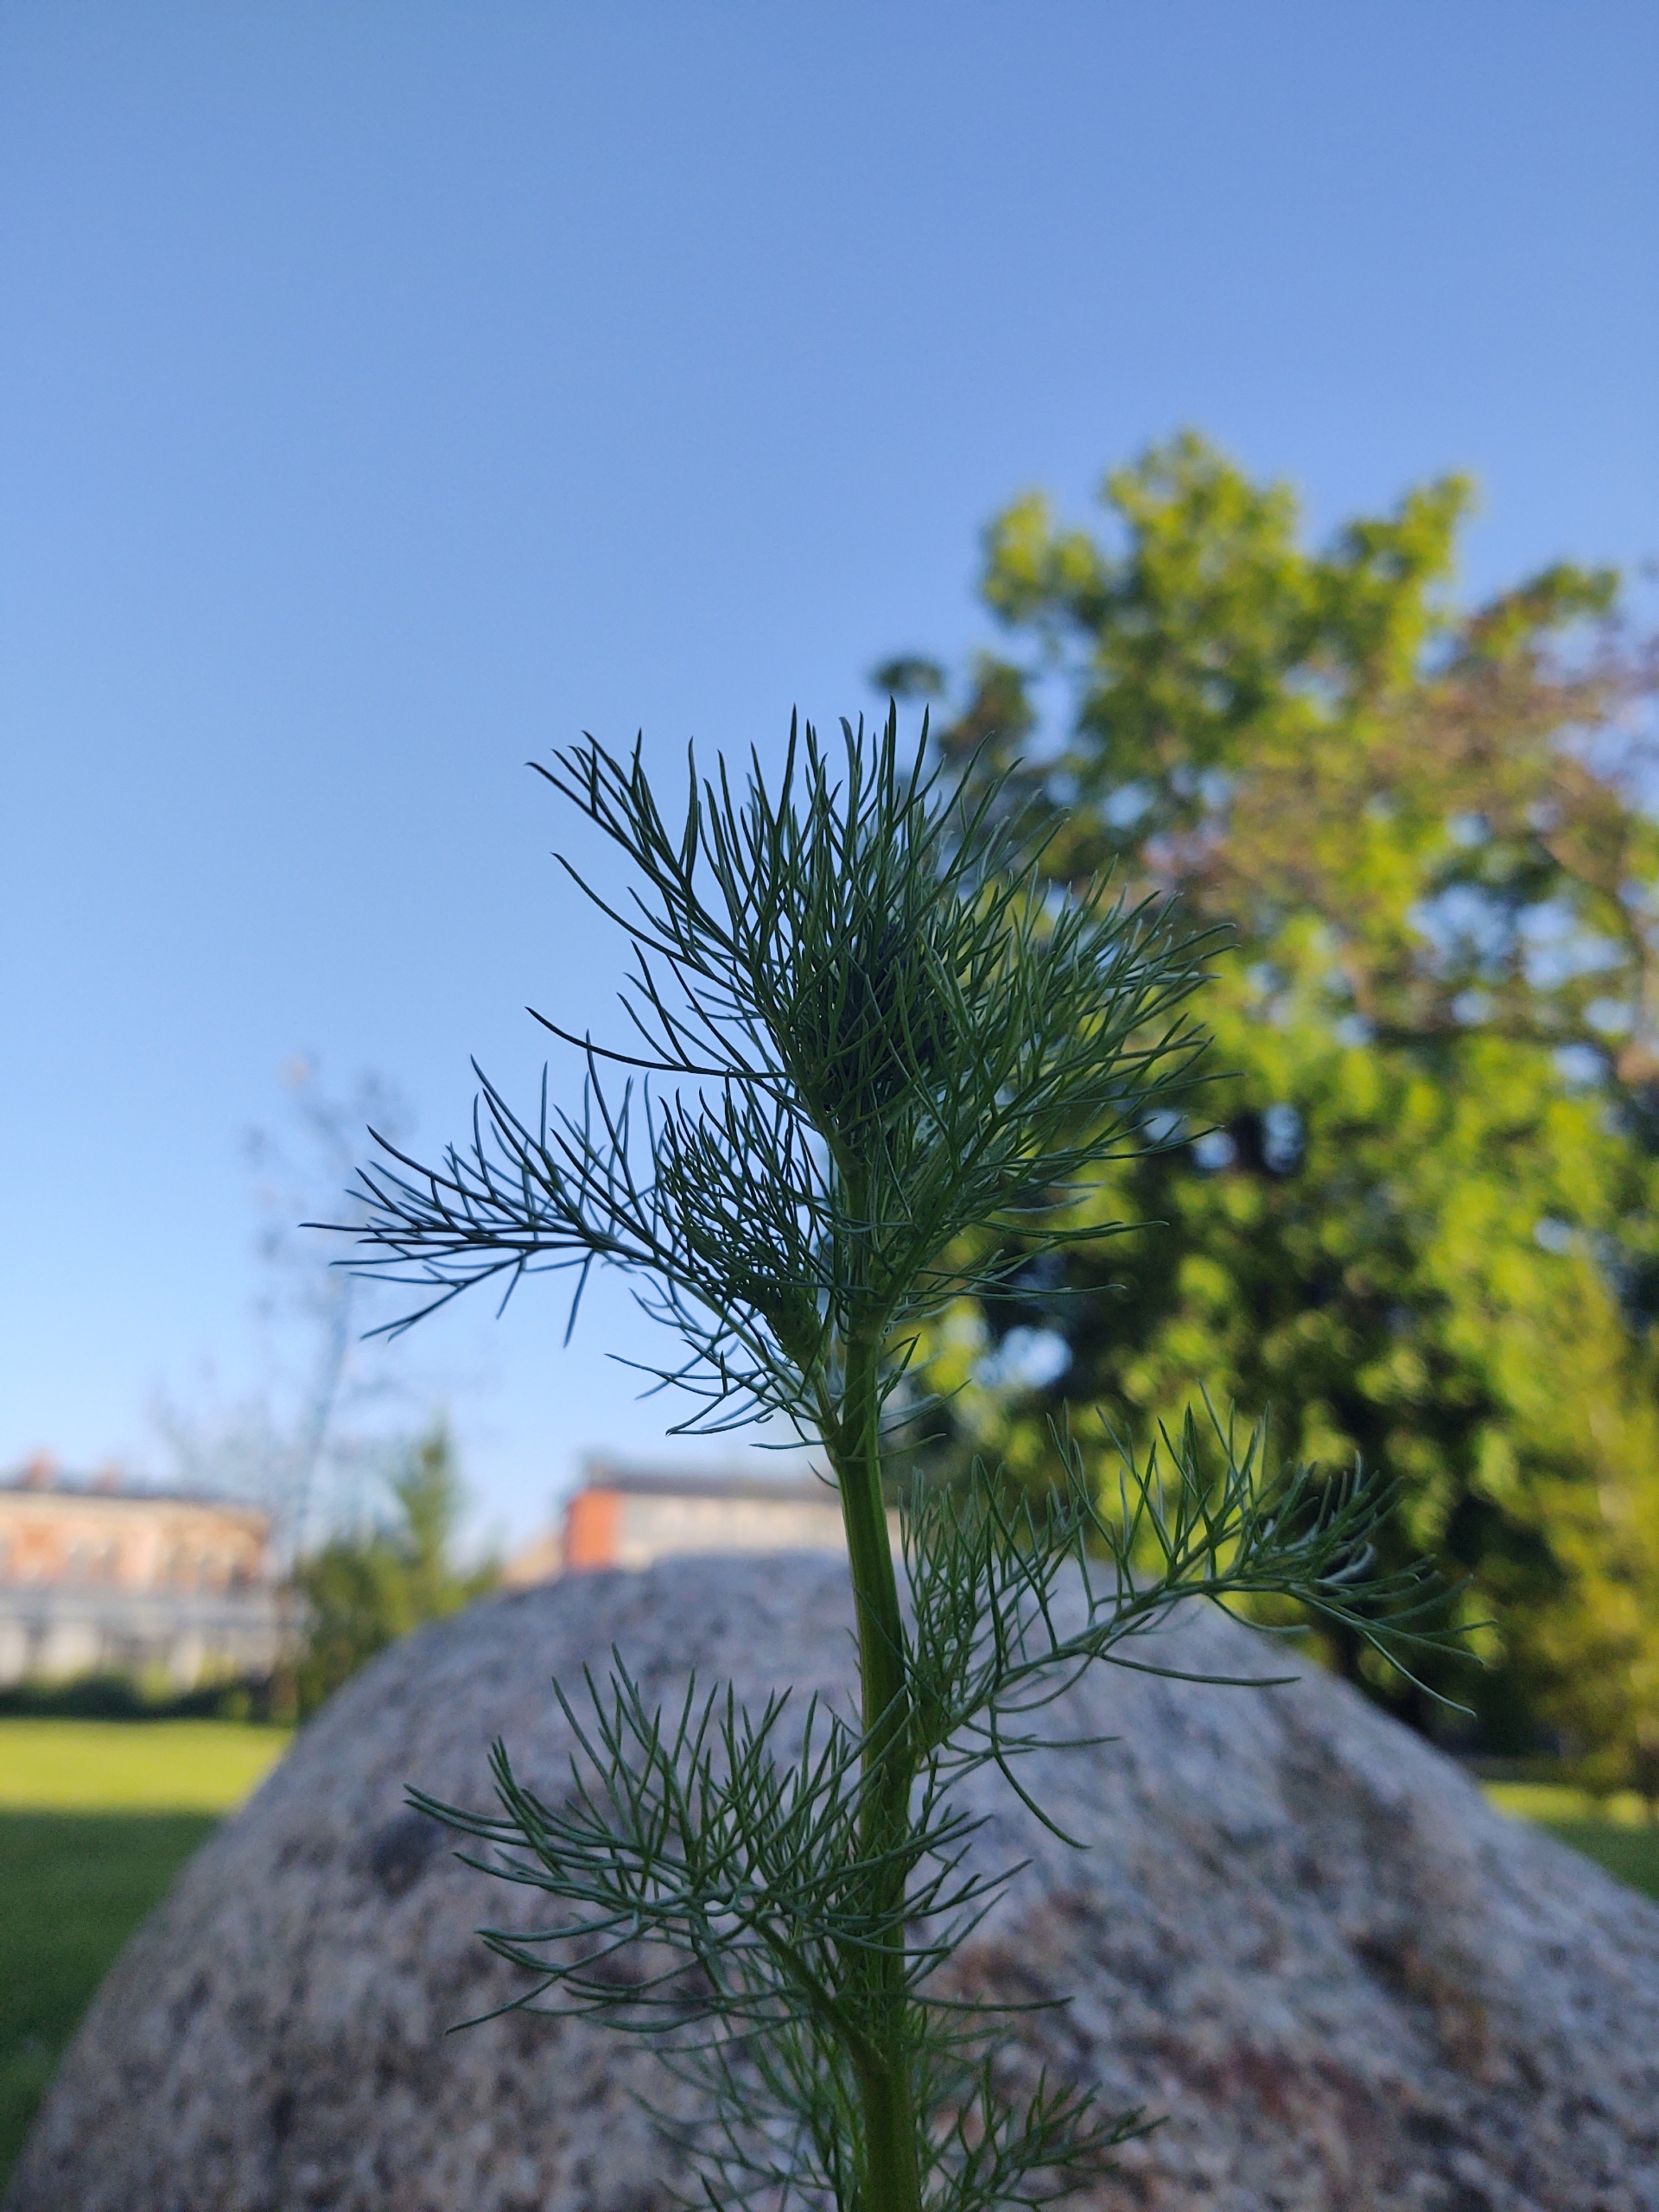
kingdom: Plantae
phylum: Tracheophyta
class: Magnoliopsida
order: Asterales
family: Asteraceae
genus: Tripleurospermum
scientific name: Tripleurospermum inodorum
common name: Lugtløs kamille
